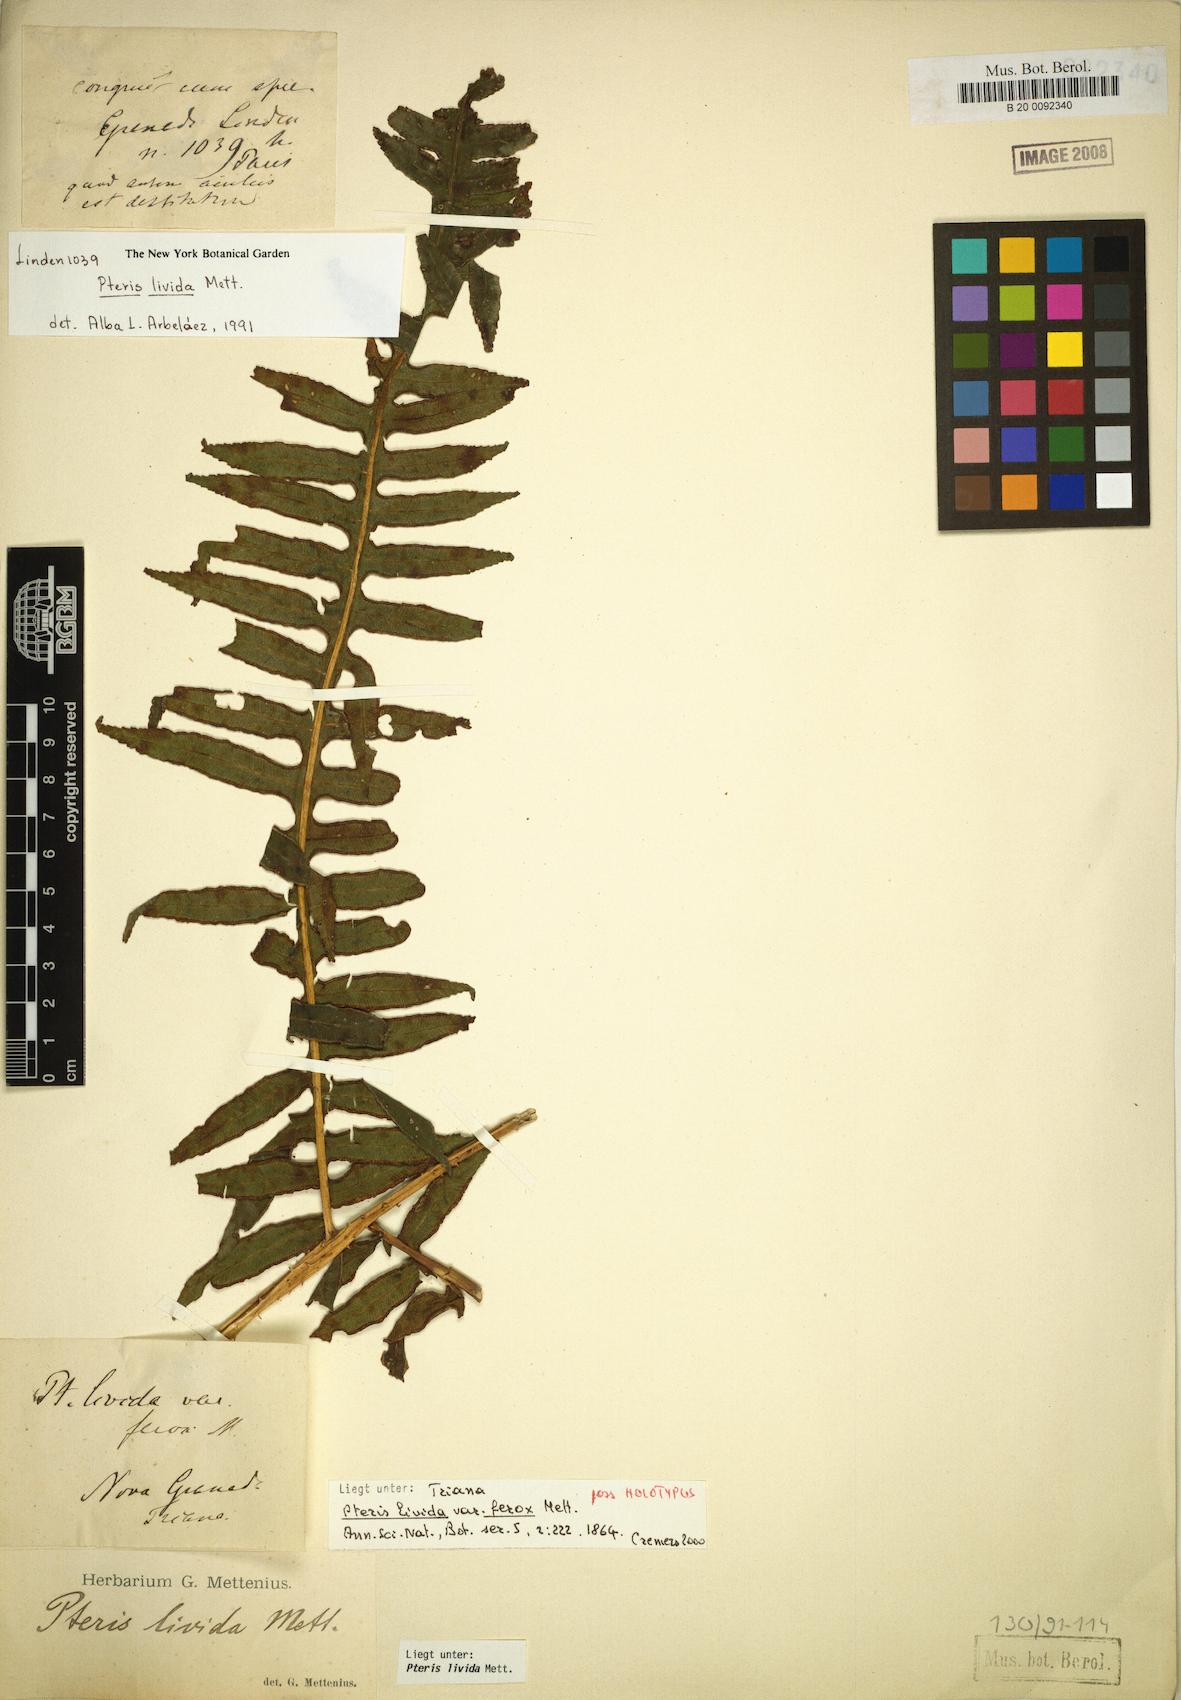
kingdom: Plantae
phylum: Tracheophyta
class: Polypodiopsida
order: Polypodiales
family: Pteridaceae
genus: Pteris
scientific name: Pteris livida
